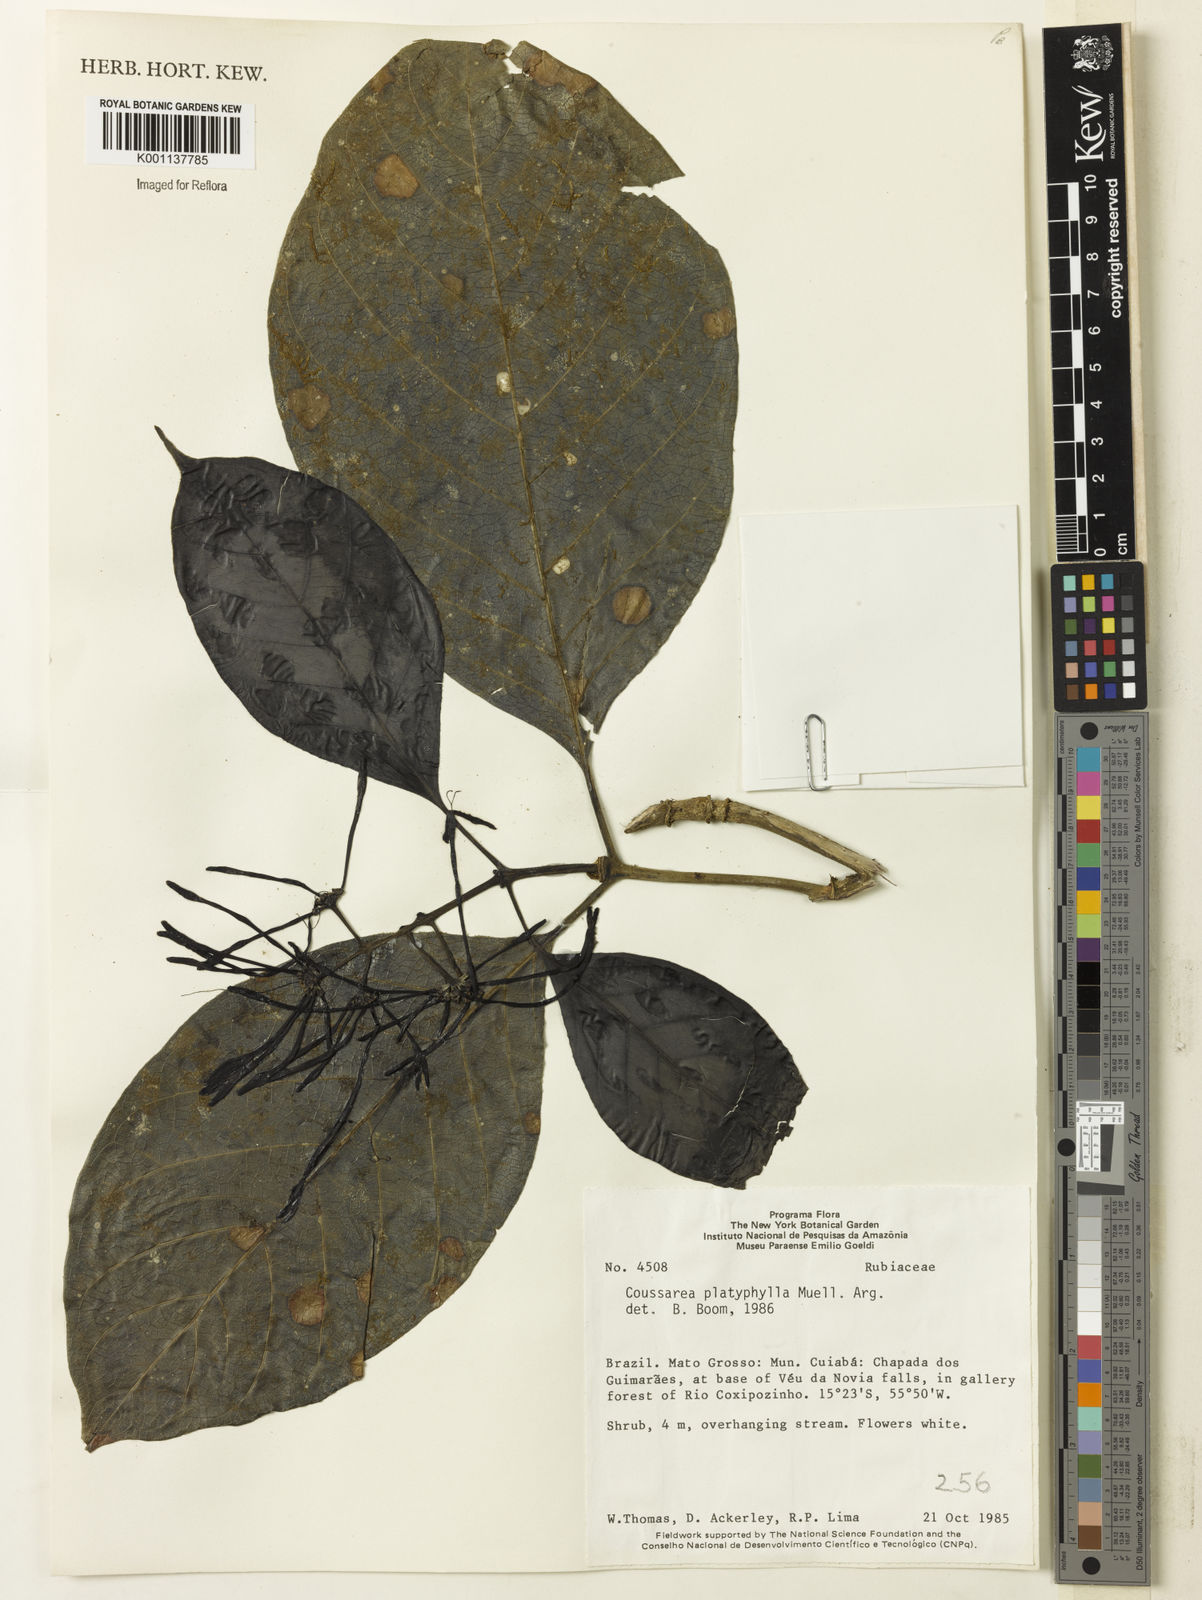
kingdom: Plantae
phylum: Tracheophyta
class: Magnoliopsida
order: Gentianales
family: Rubiaceae
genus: Coussarea
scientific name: Coussarea
